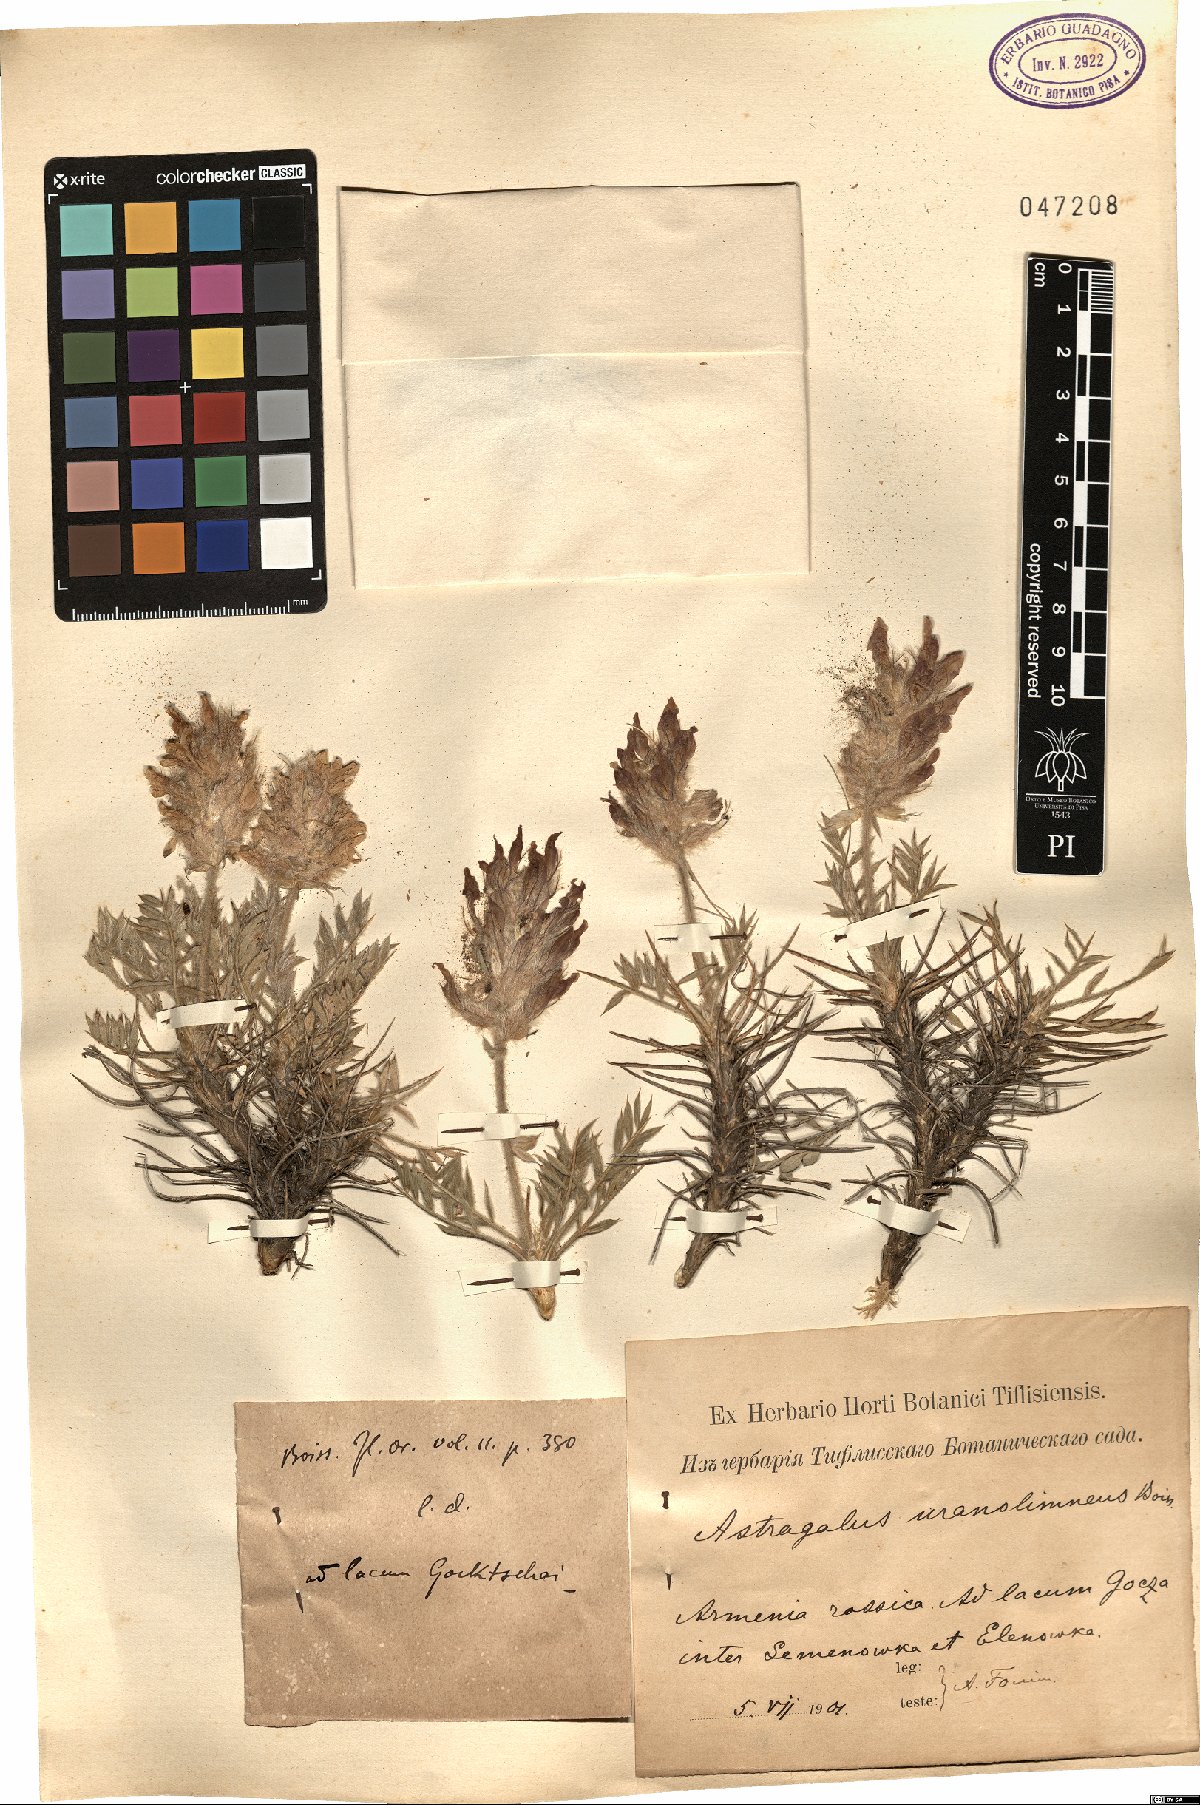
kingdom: Plantae
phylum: Tracheophyta
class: Magnoliopsida
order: Fabales
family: Fabaceae
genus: Astragalus
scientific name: Astragalus uraniolimneus
